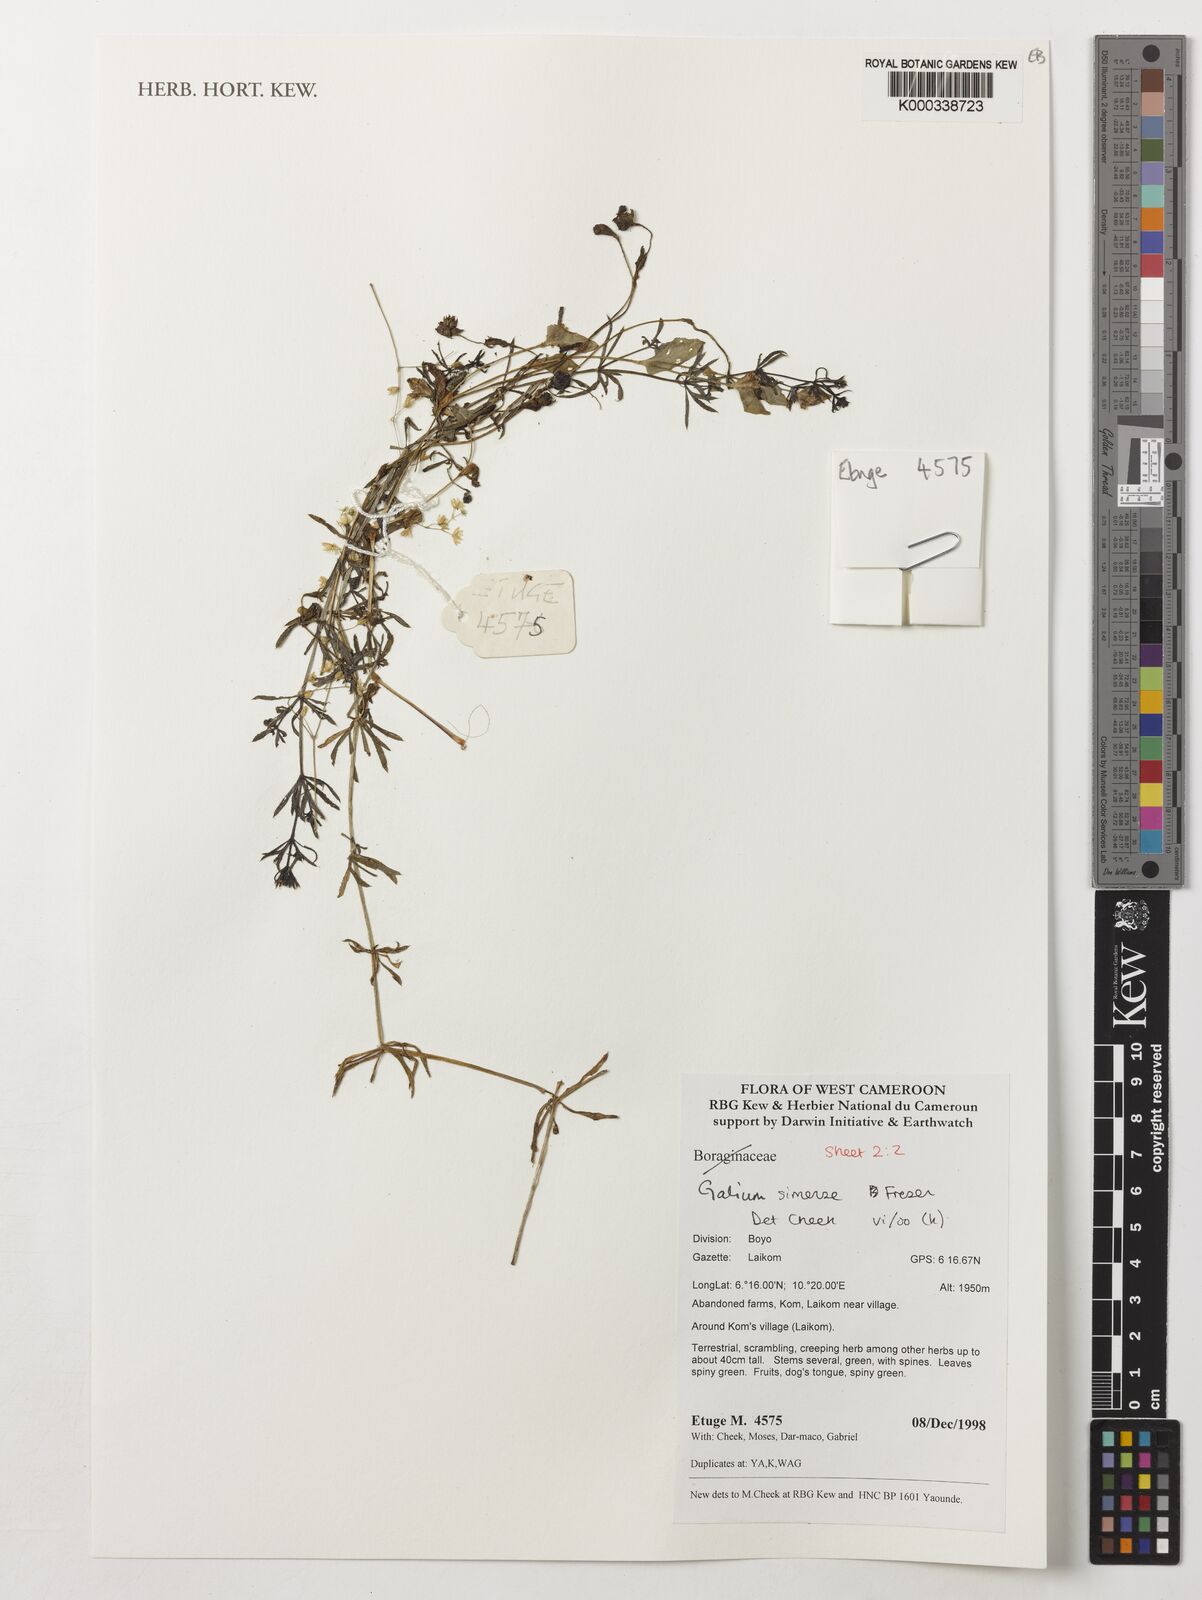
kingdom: Plantae
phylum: Tracheophyta
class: Magnoliopsida
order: Gentianales
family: Rubiaceae
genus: Galium
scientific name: Galium simense
